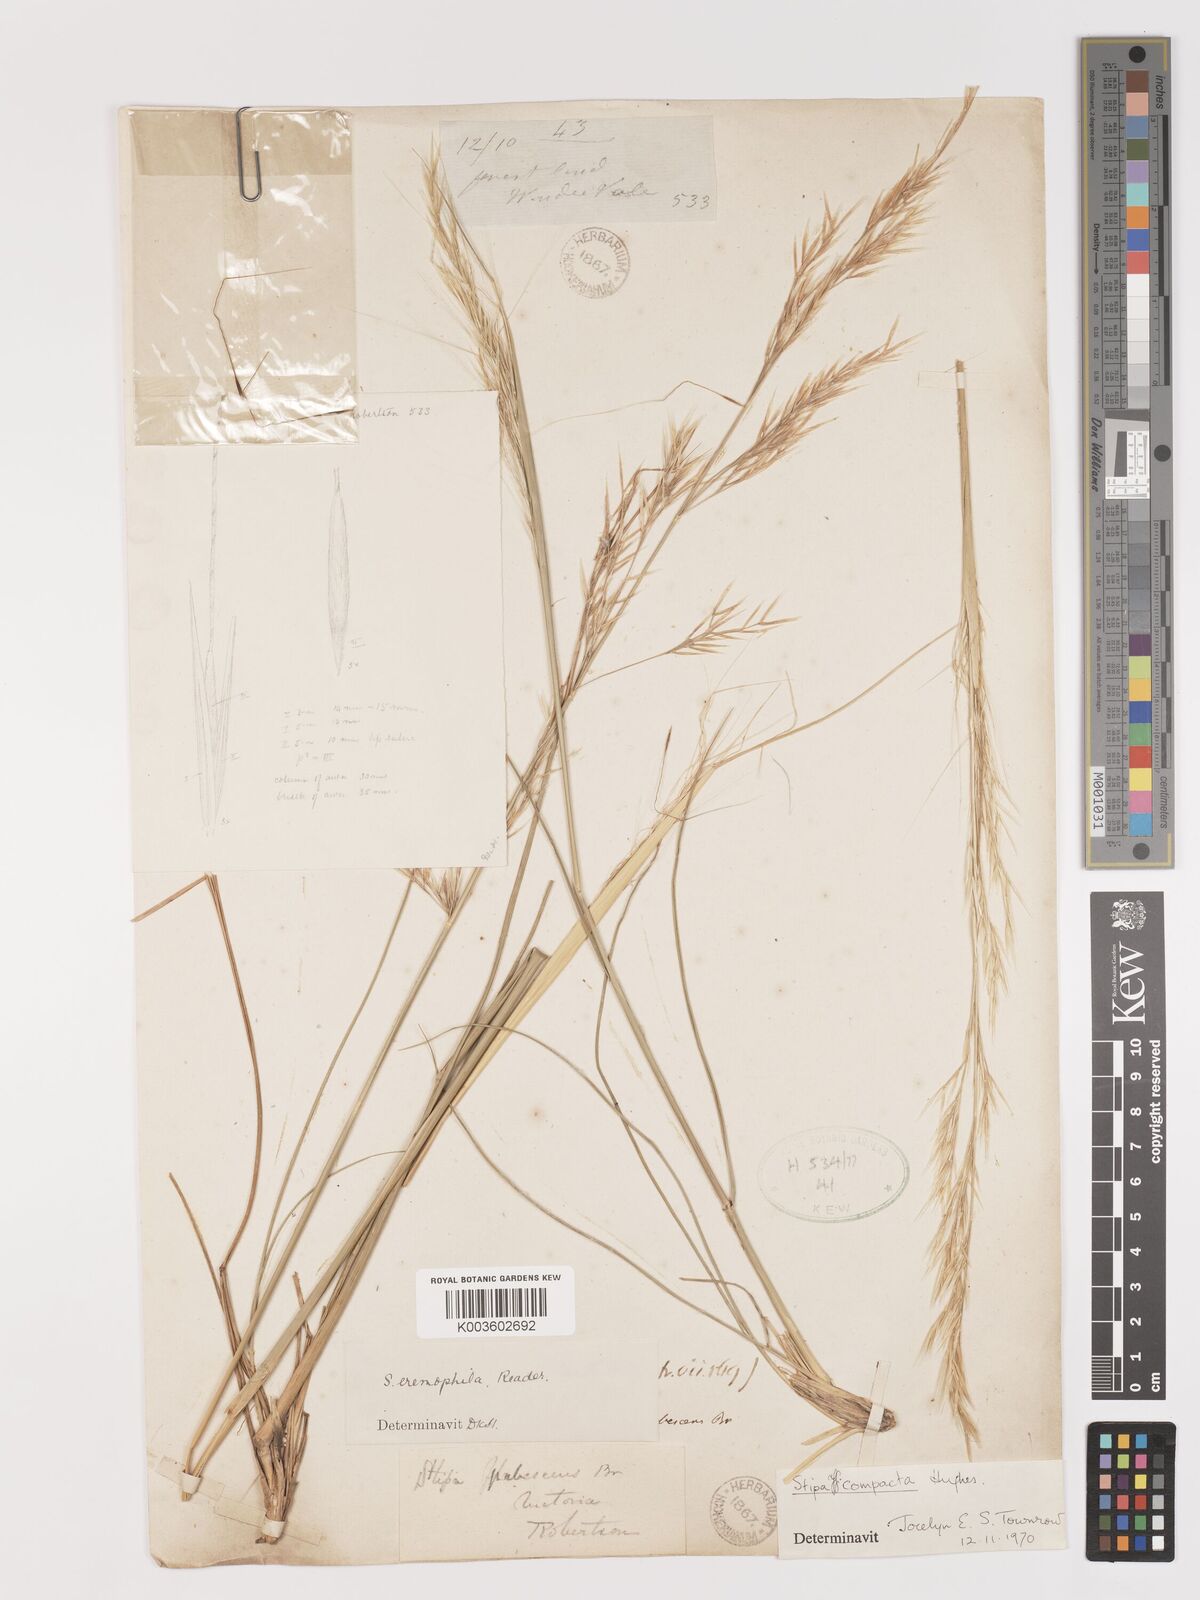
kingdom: Plantae
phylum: Tracheophyta
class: Liliopsida
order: Poales
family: Poaceae
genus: Austrostipa
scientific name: Austrostipa eremophila
